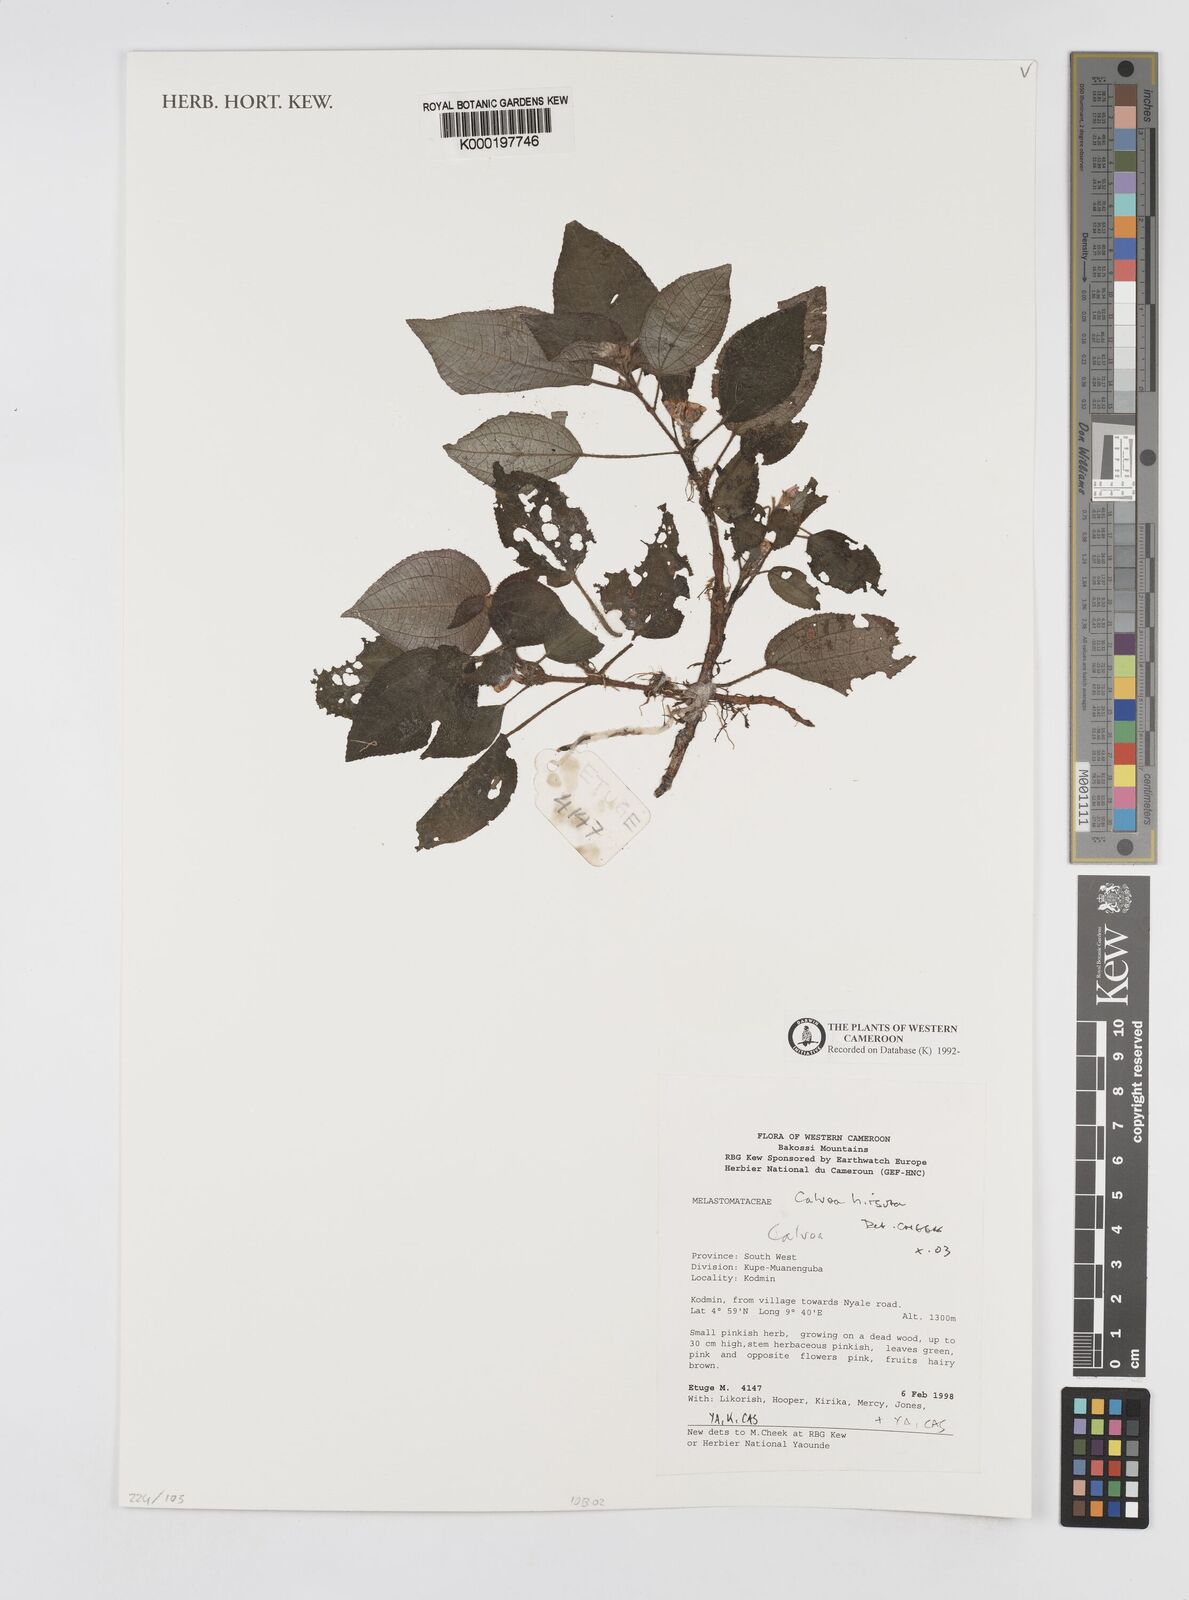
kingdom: Plantae
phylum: Tracheophyta
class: Magnoliopsida
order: Myrtales
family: Melastomataceae
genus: Calvoa
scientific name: Calvoa
